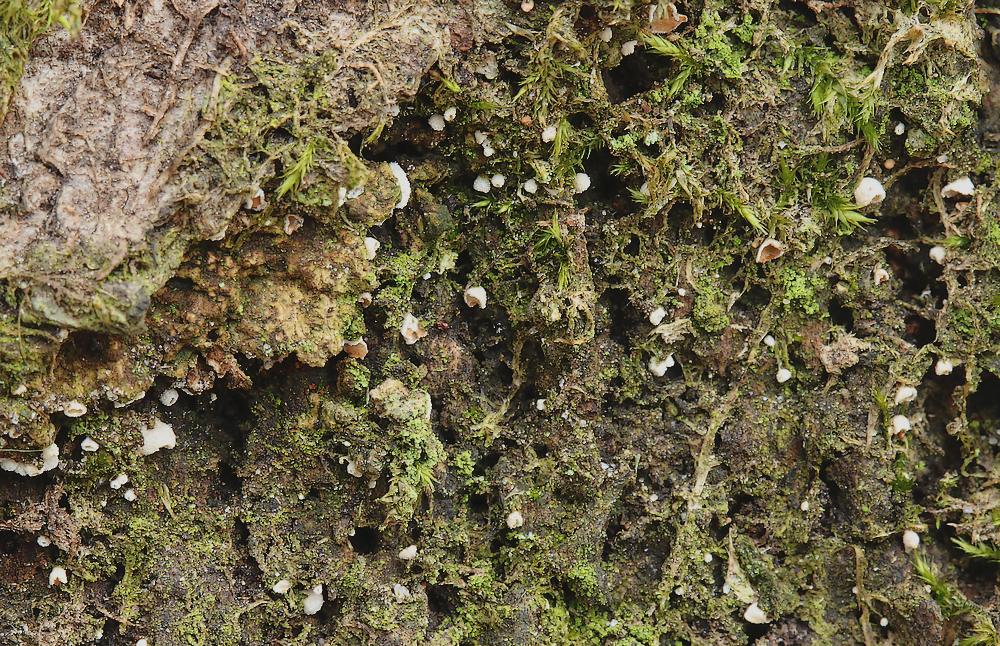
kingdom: Fungi
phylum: Basidiomycota
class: Agaricomycetes
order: Agaricales
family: Chromocyphellaceae
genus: Chromocyphella
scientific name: Chromocyphella muscicola
